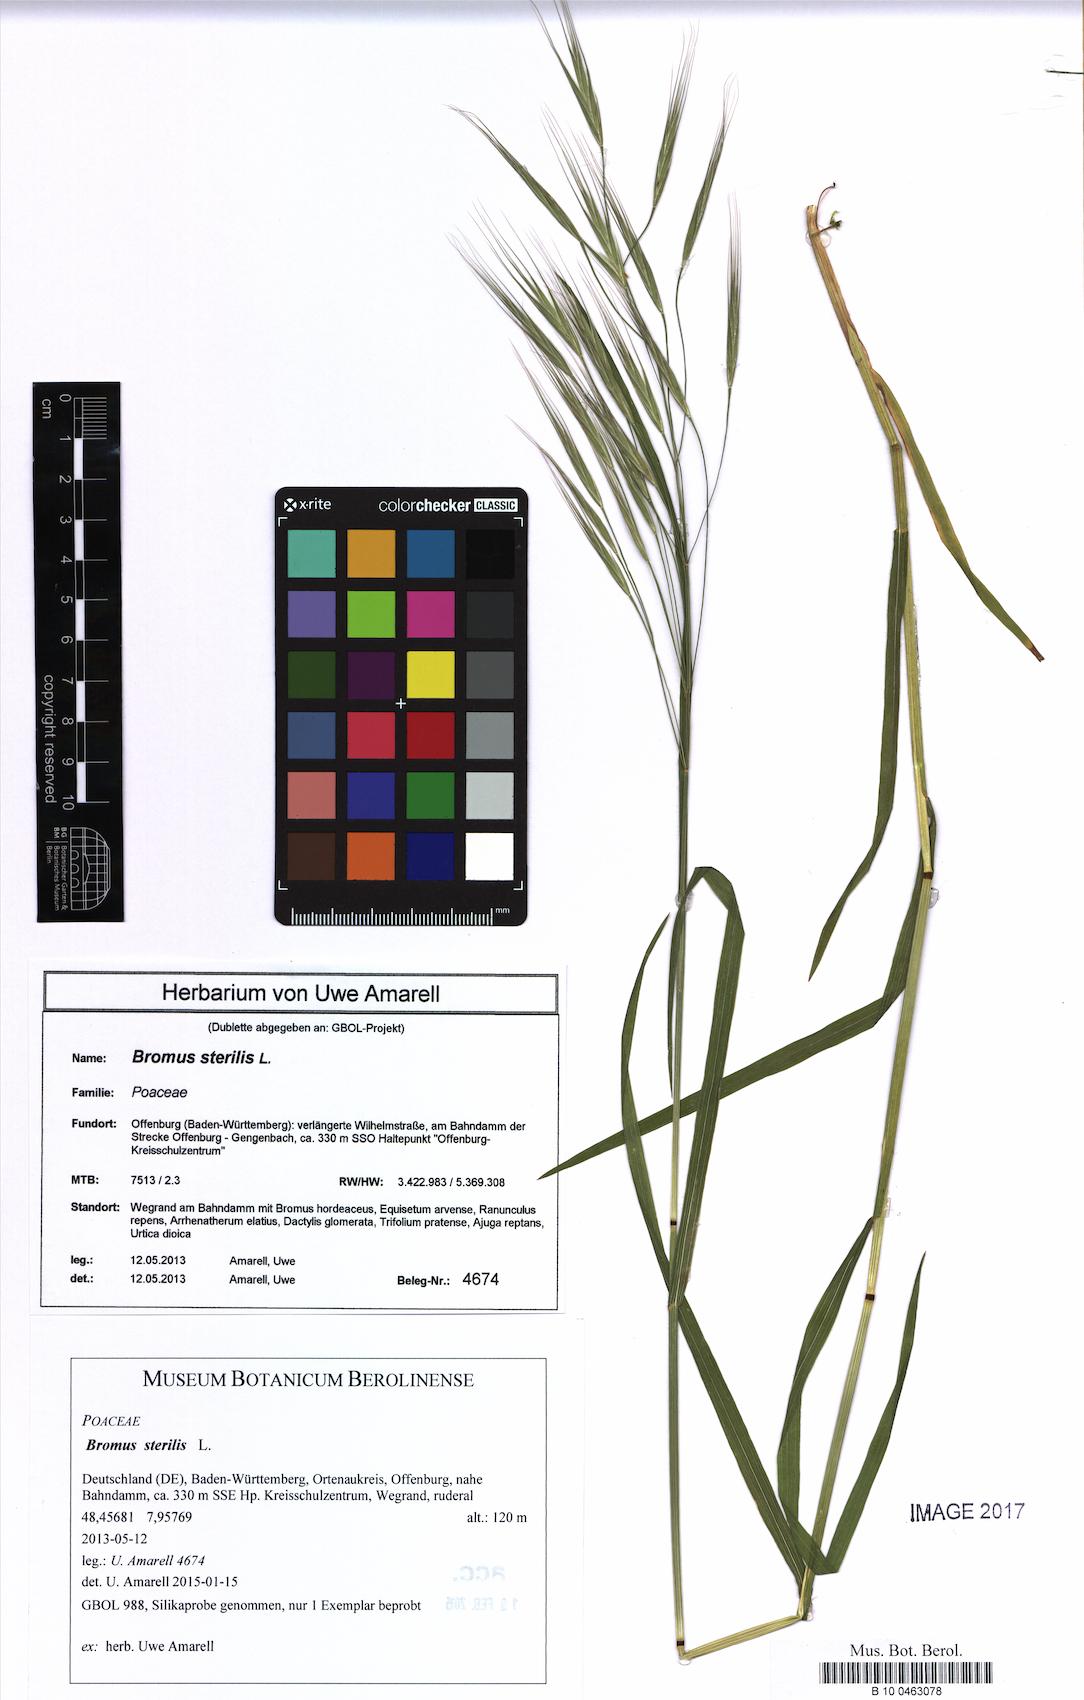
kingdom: Plantae
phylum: Tracheophyta
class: Liliopsida
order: Poales
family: Poaceae
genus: Bromus
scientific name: Bromus sterilis
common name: Poverty brome
